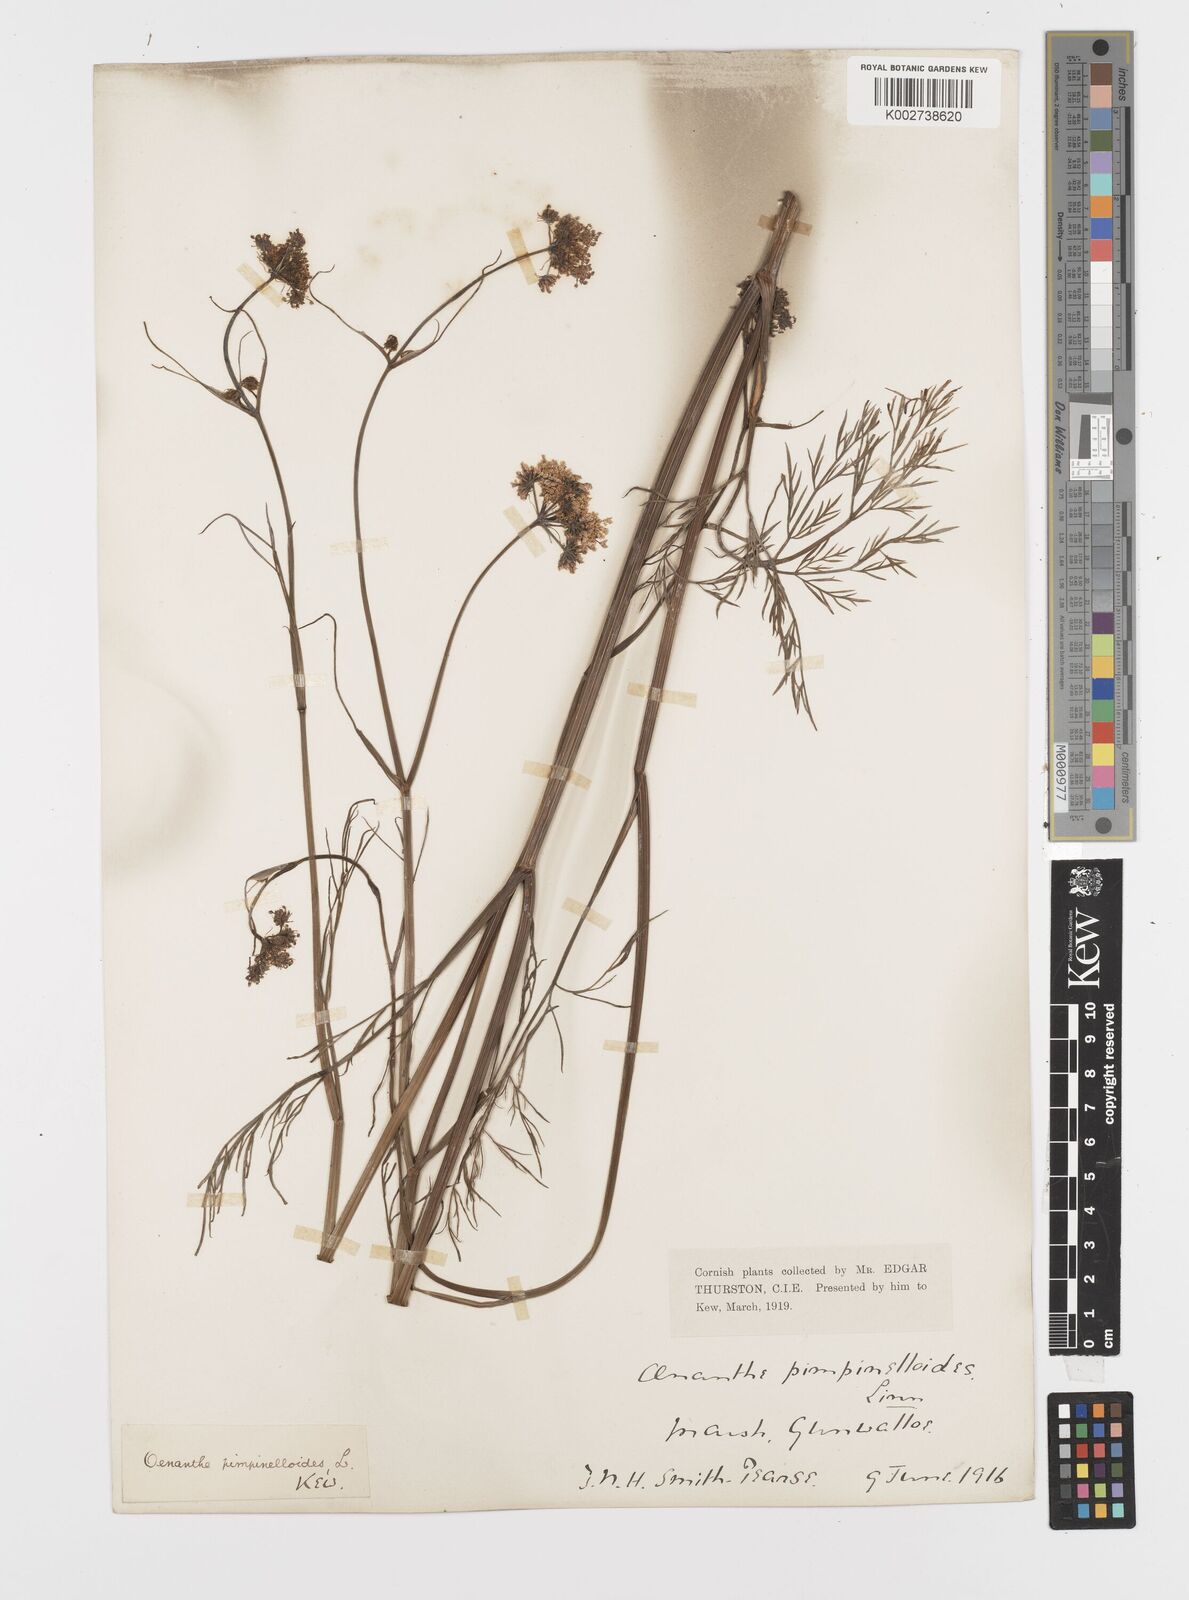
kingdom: Plantae
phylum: Tracheophyta
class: Magnoliopsida
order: Apiales
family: Apiaceae
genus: Oenanthe
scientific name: Oenanthe pimpinelloides
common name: Corky-fruited water-dropwort
